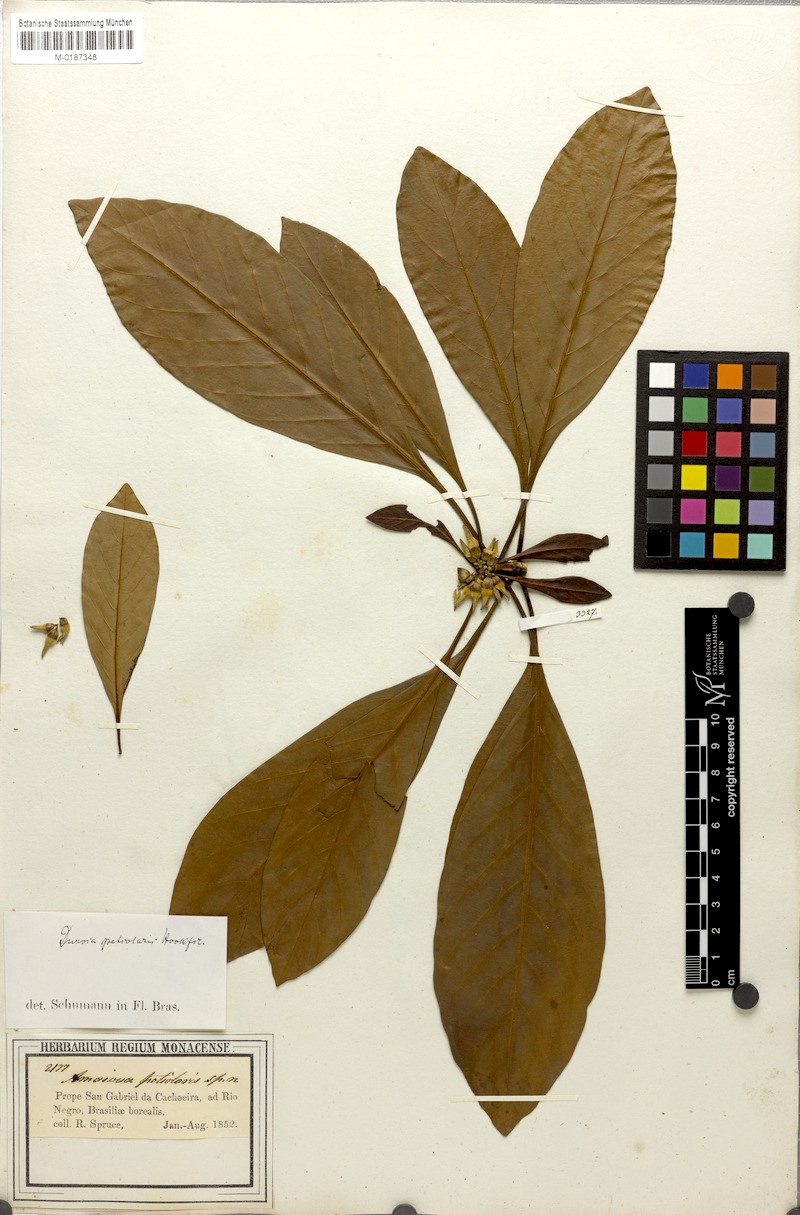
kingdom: Plantae
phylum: Tracheophyta
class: Magnoliopsida
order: Gentianales
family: Rubiaceae
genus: Duroia
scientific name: Duroia petiolaris
